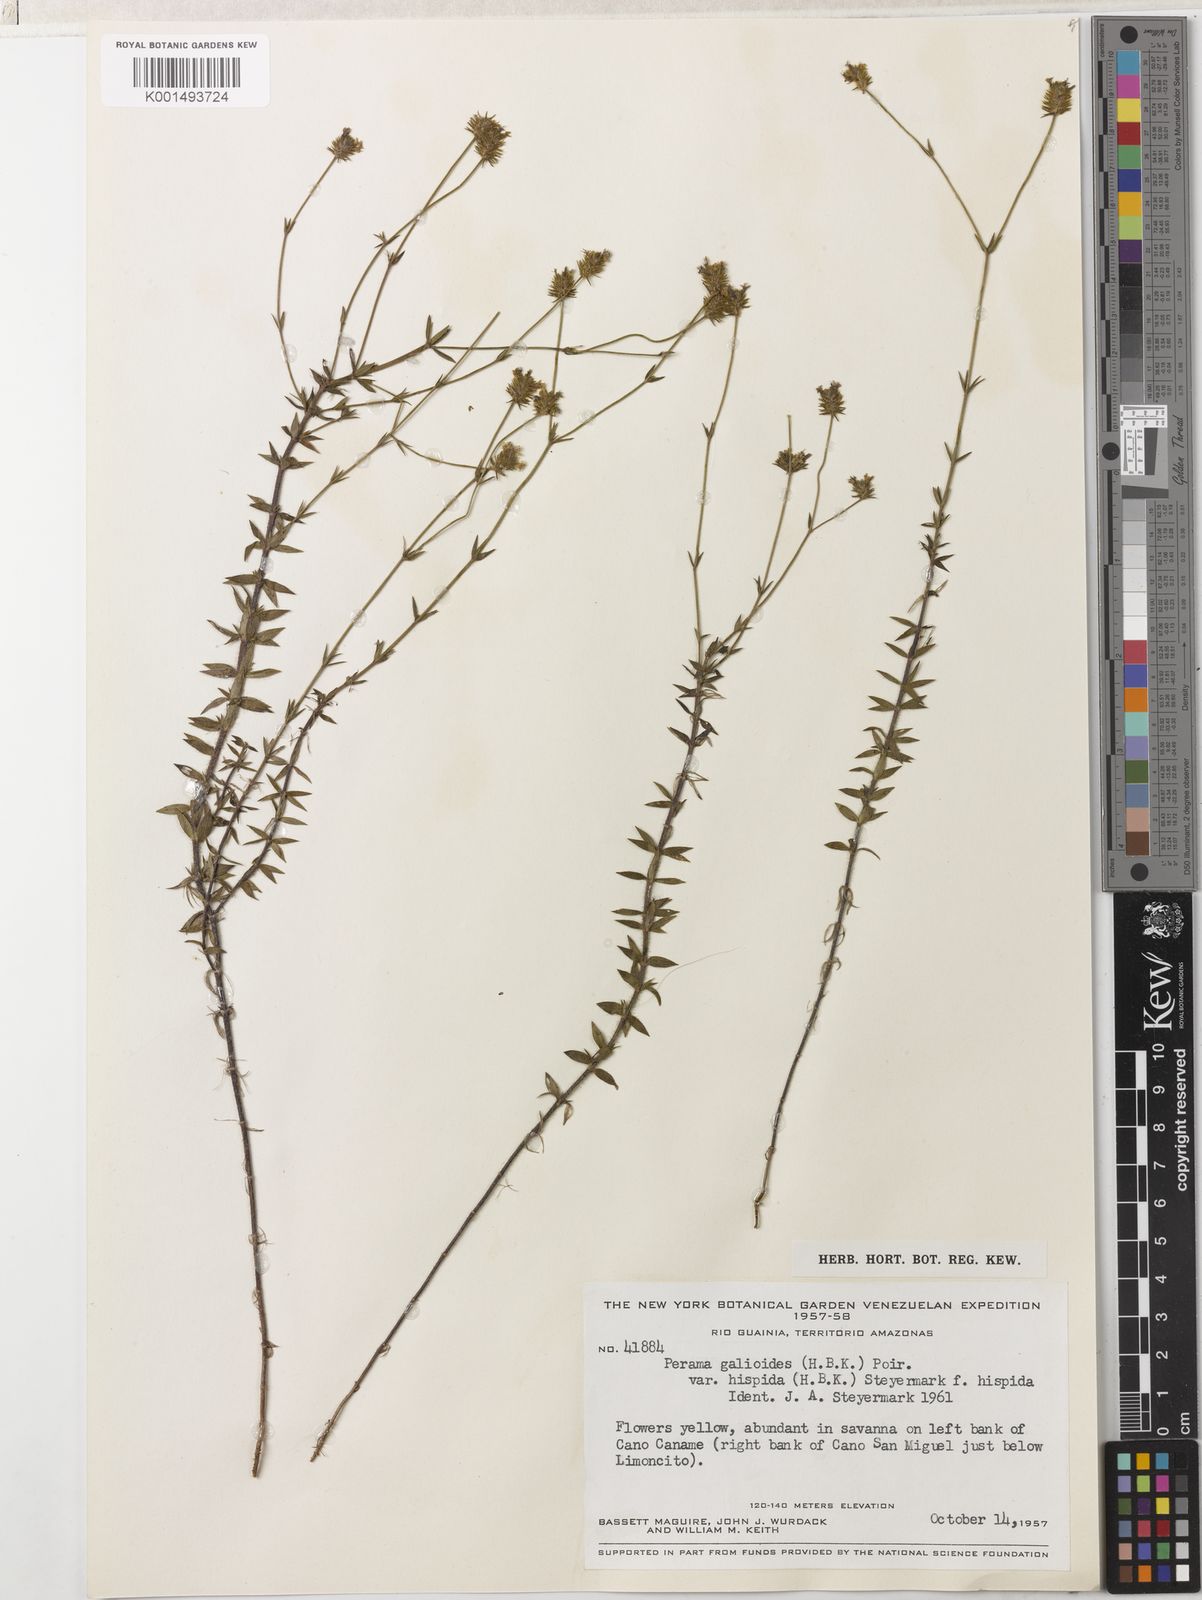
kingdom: Plantae
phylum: Tracheophyta
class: Magnoliopsida
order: Gentianales
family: Rubiaceae
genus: Perama
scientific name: Perama galioides
